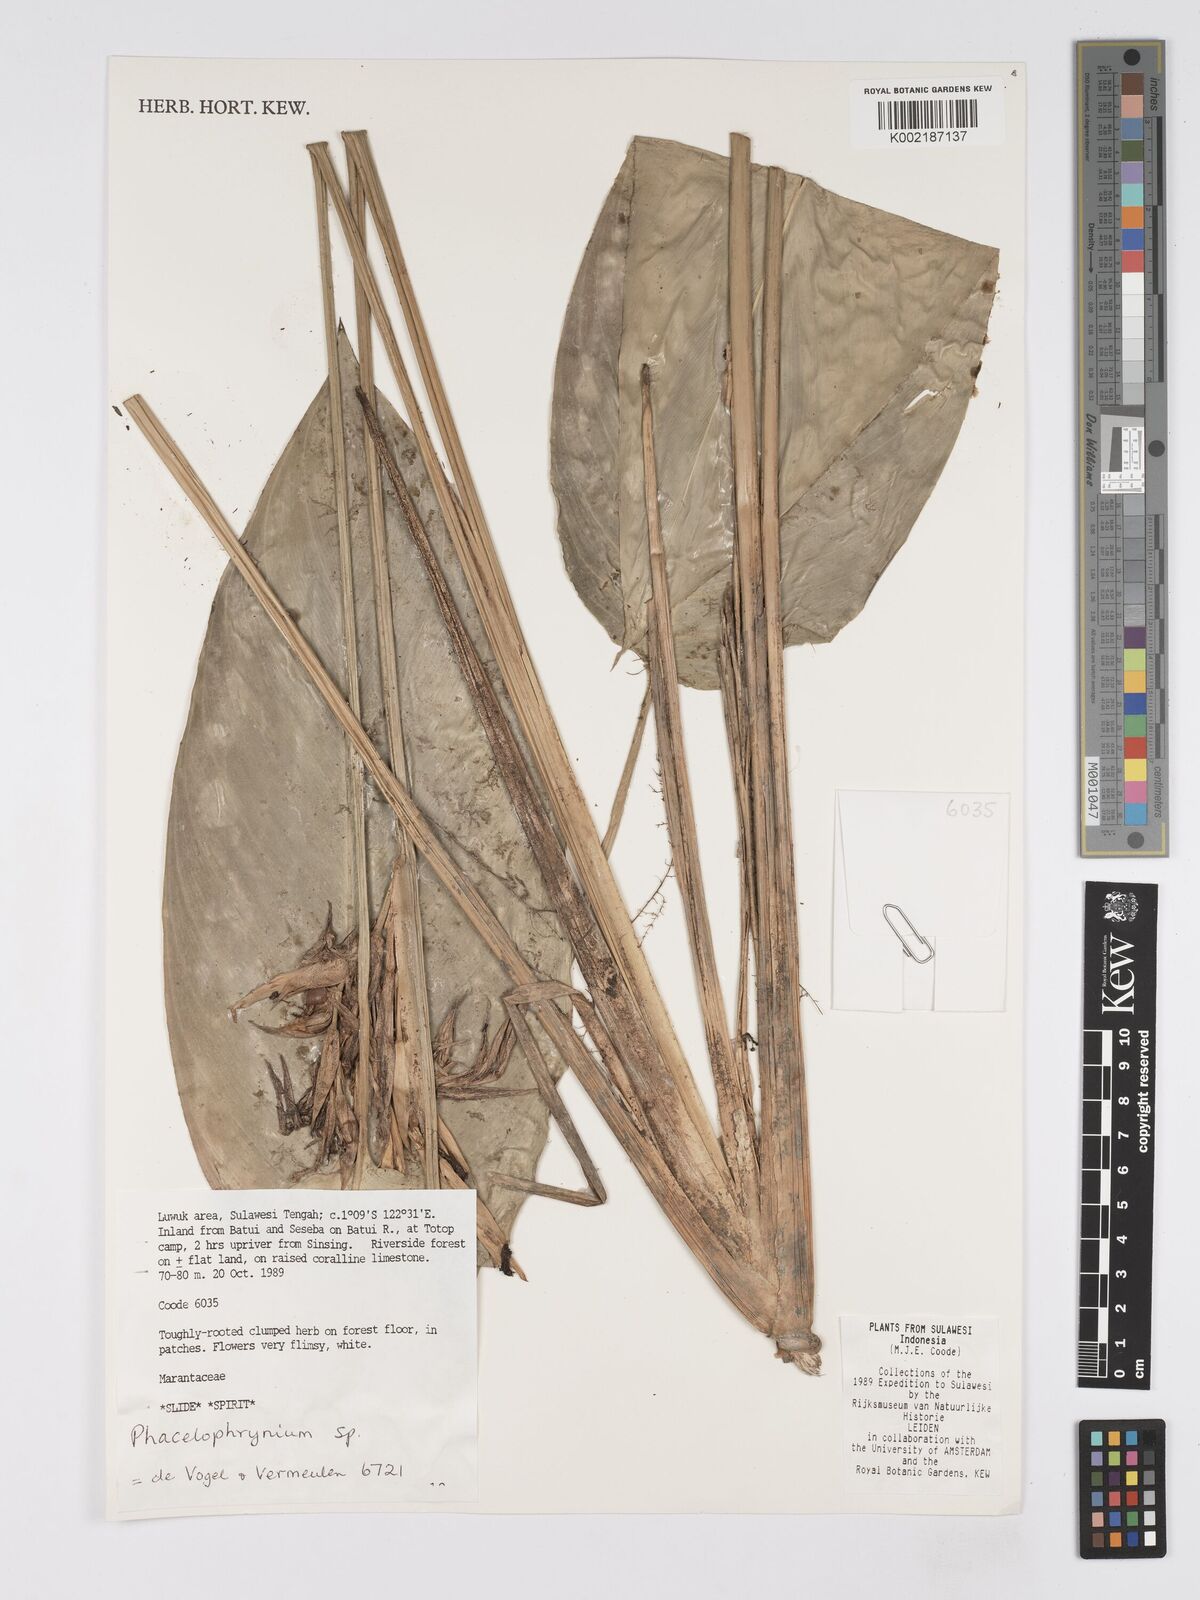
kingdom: Plantae
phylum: Tracheophyta
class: Liliopsida
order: Zingiberales
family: Marantaceae
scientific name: Marantaceae
